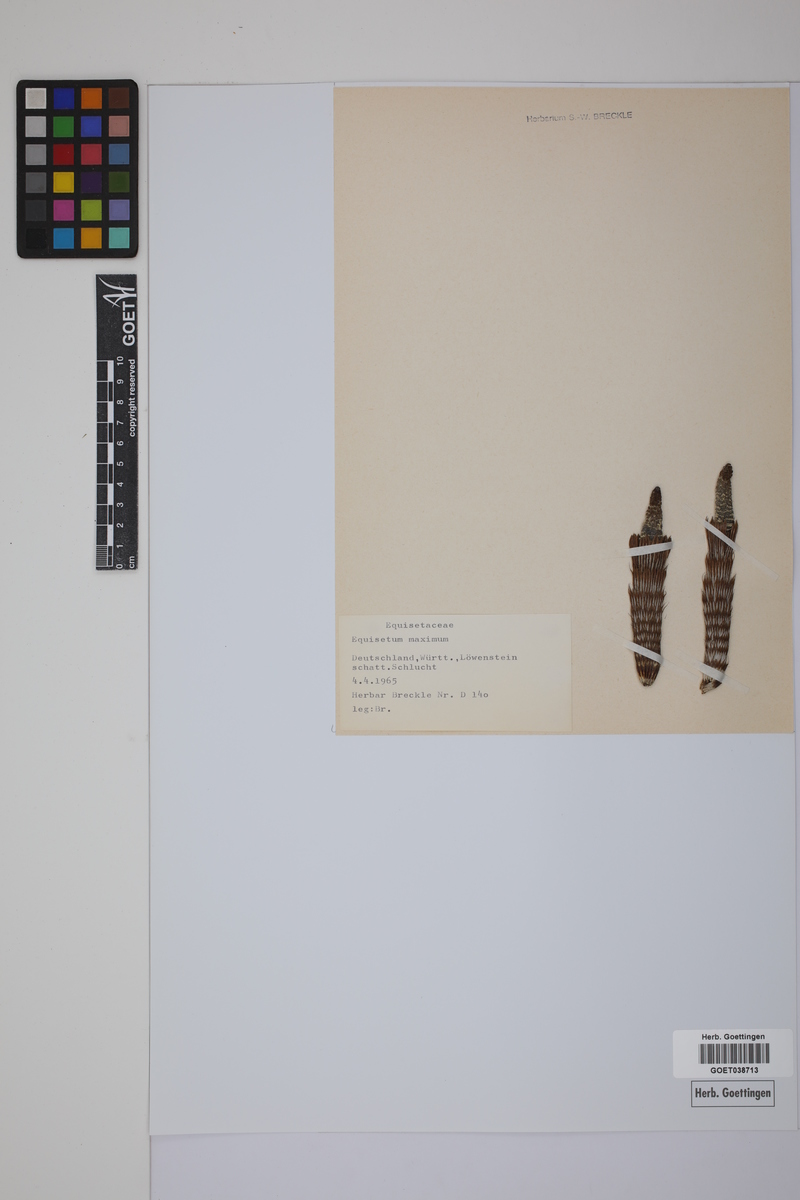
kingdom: Plantae
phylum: Tracheophyta
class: Polypodiopsida
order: Equisetales
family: Equisetaceae
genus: Equisetum
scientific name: Equisetum fluviatile
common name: Water horsetail
